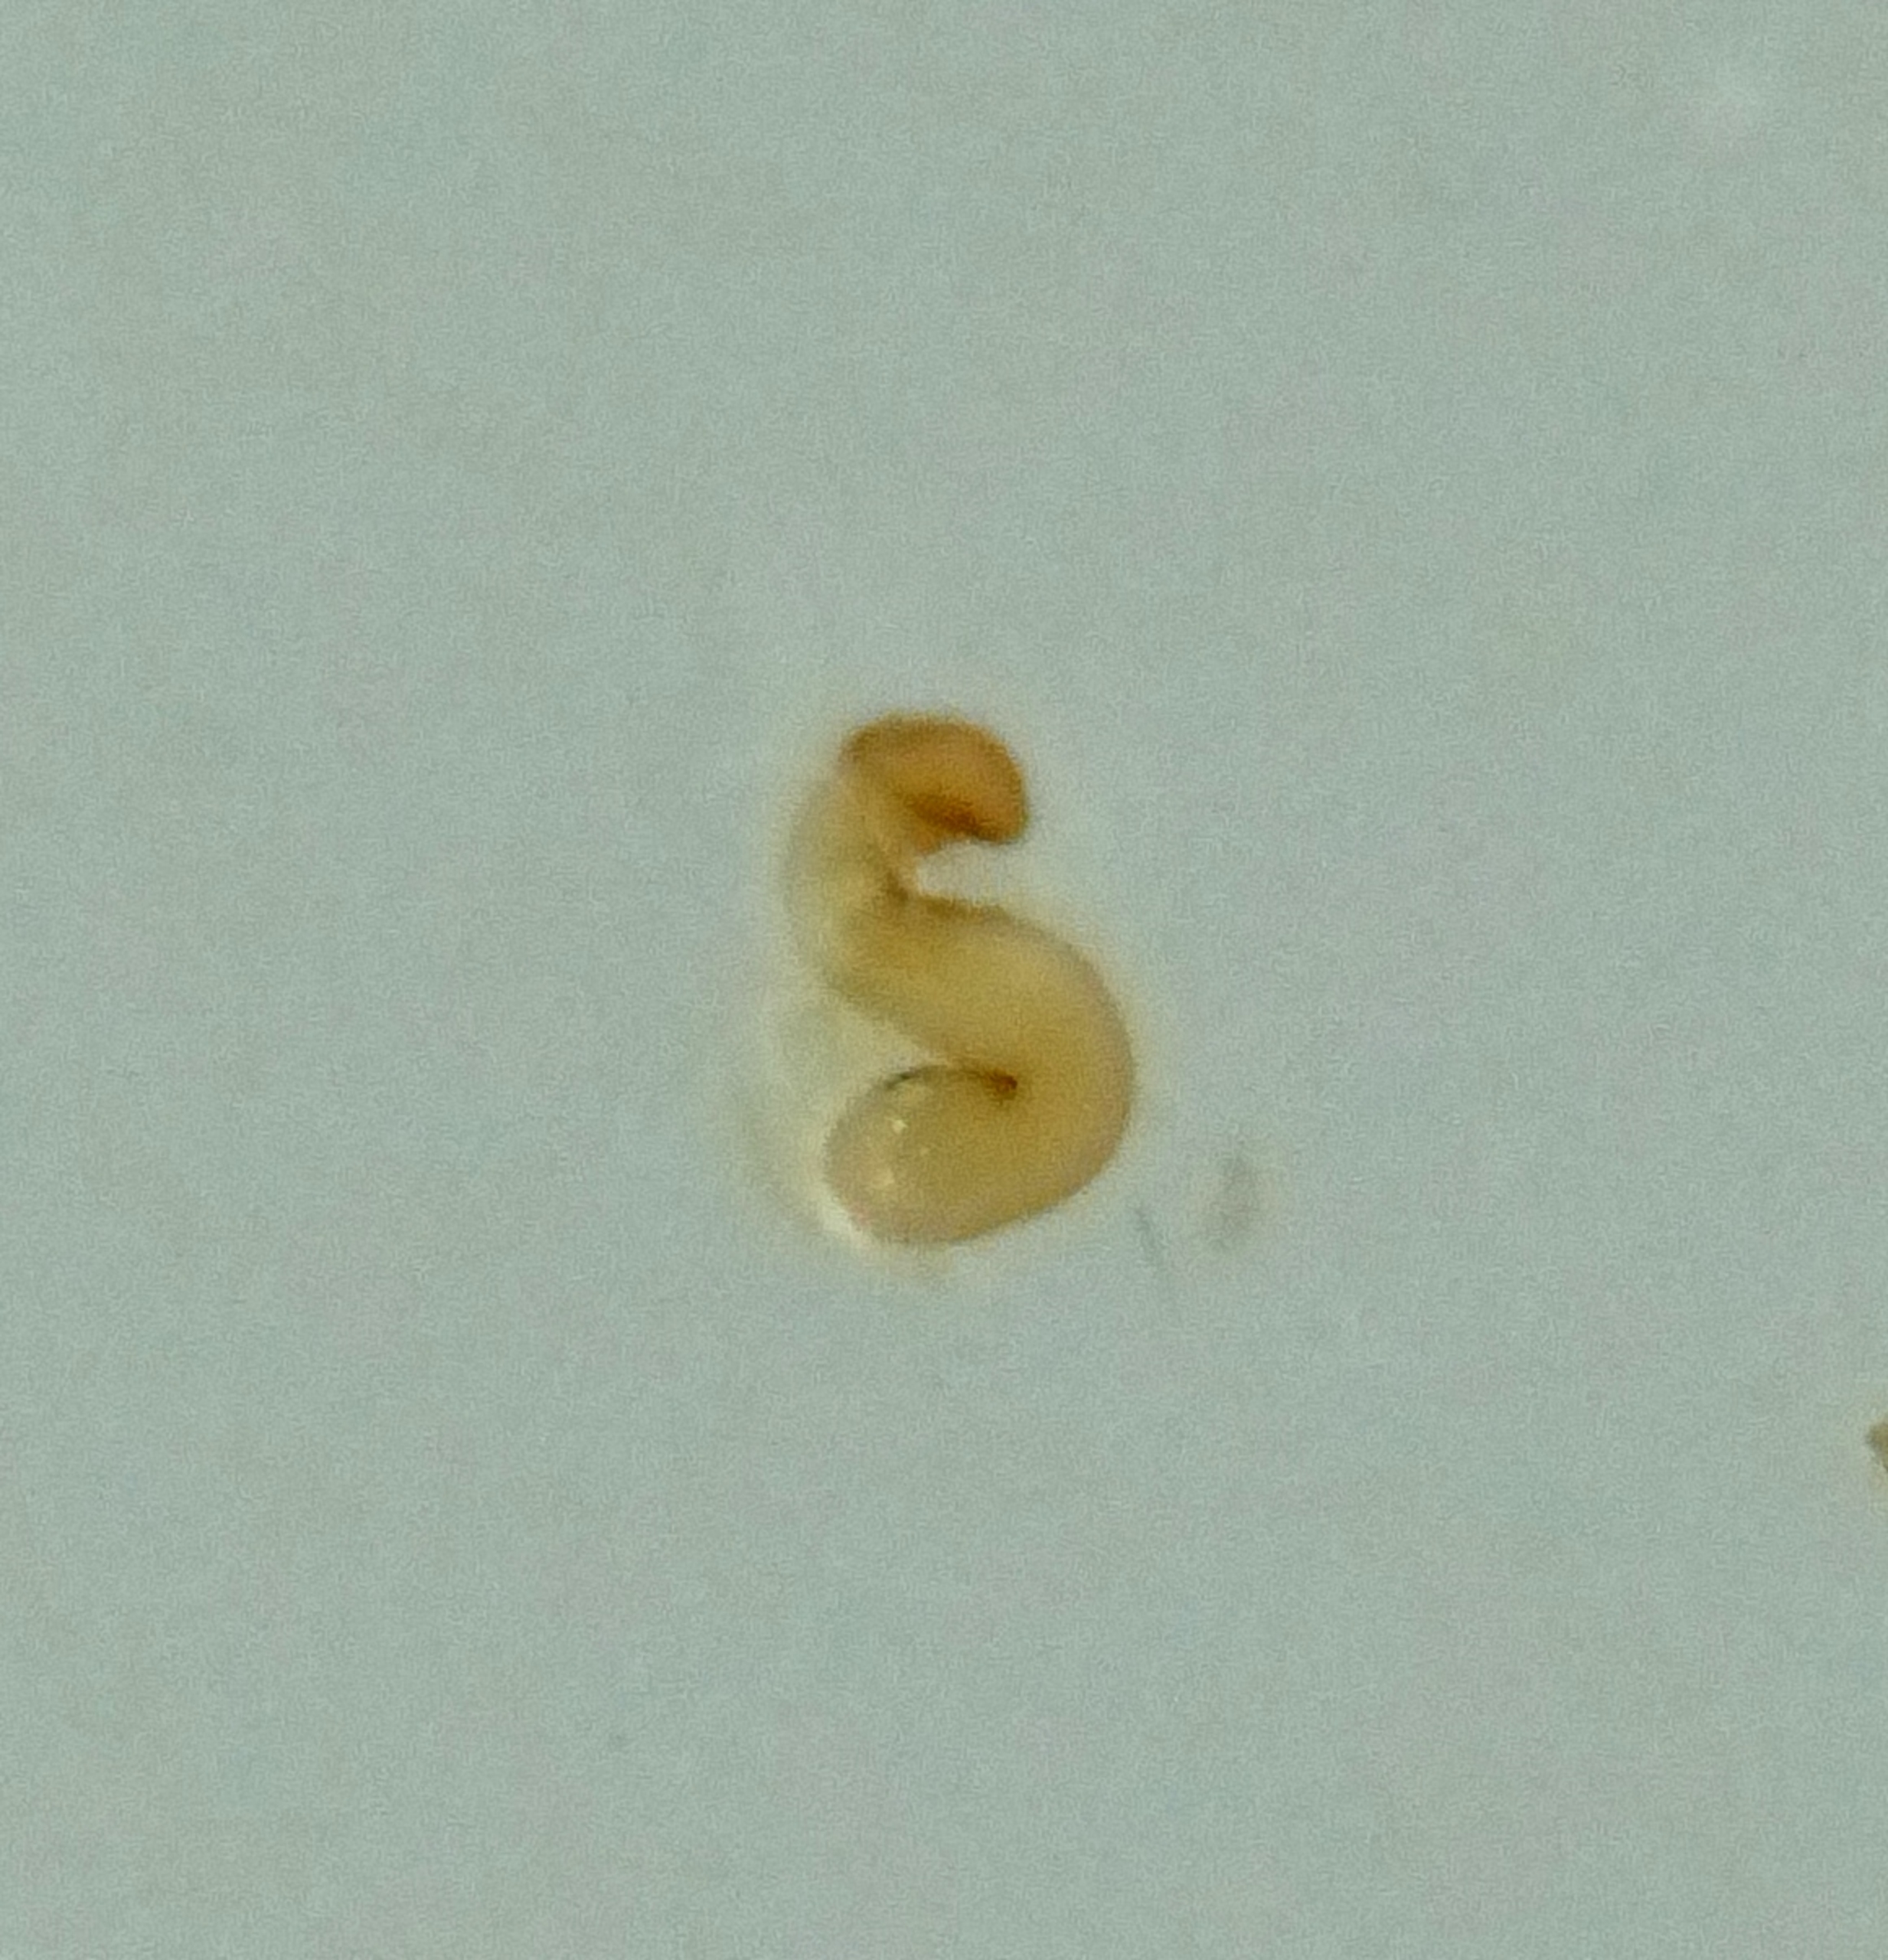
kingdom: Animalia
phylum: Arthropoda
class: Insecta
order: Coleoptera
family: Staphylinidae
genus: Nehemitropia
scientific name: Nehemitropia lividipennis
